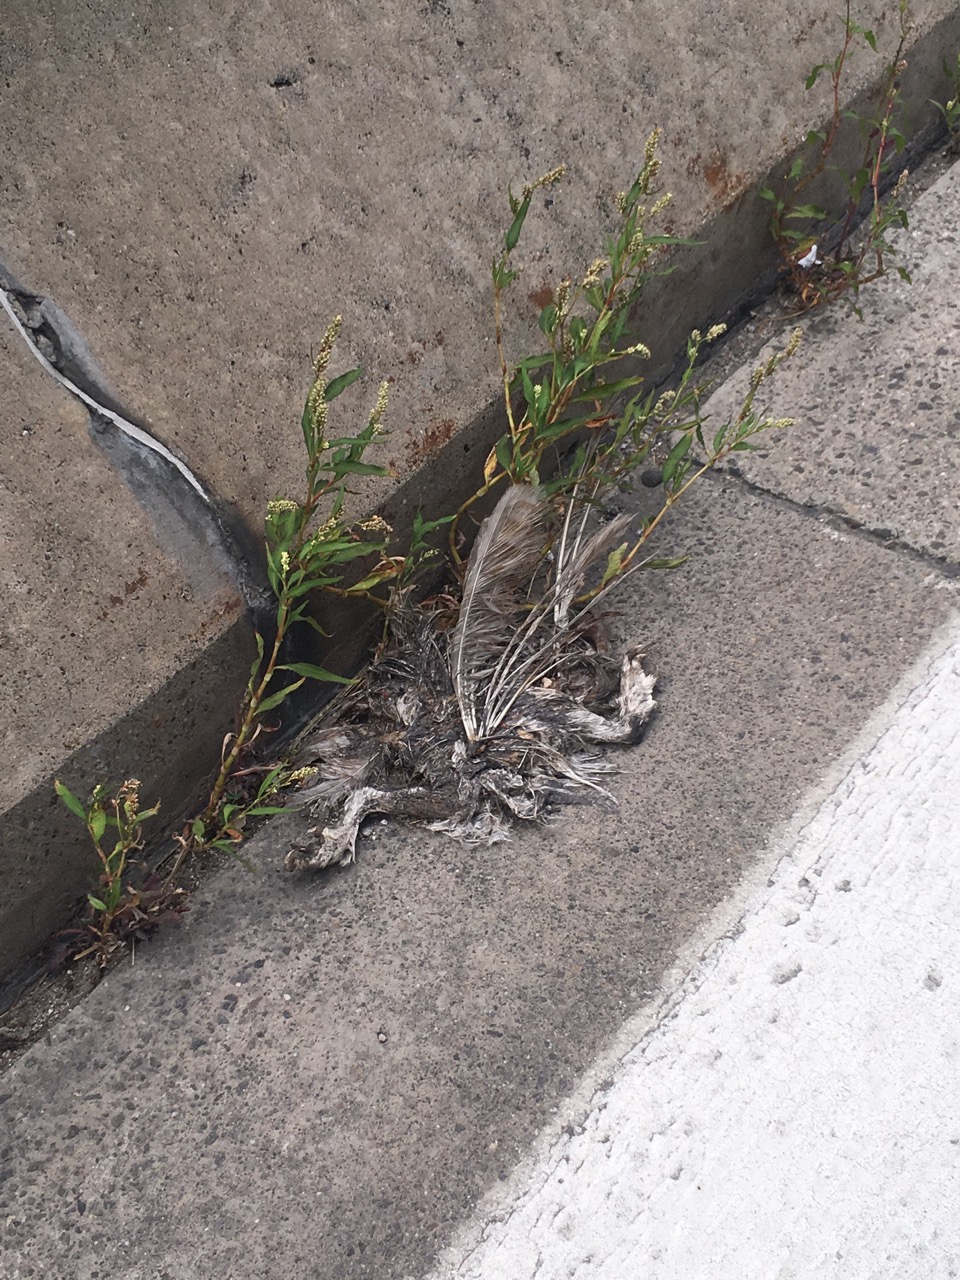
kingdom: Animalia
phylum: Chordata
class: Aves
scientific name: Aves
